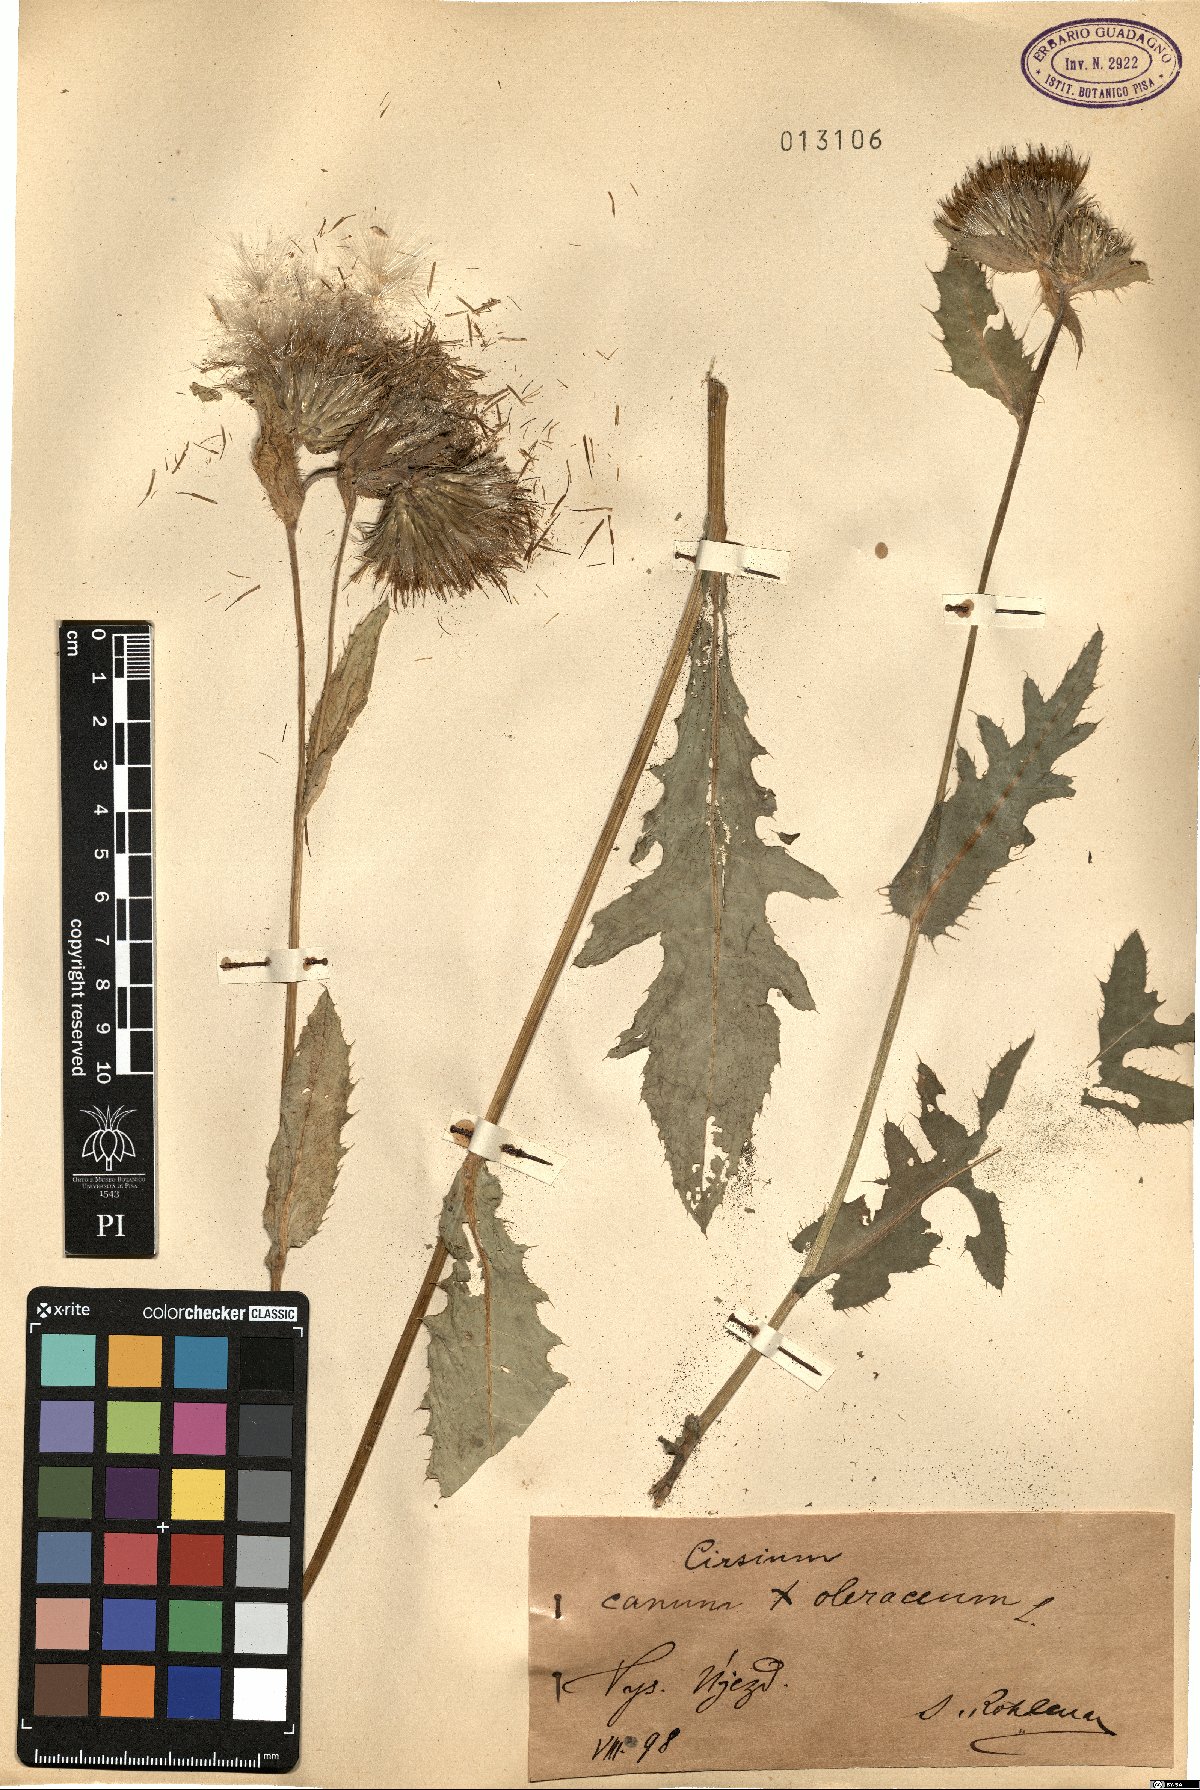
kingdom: Plantae
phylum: Tracheophyta
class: Magnoliopsida
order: Asterales
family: Asteraceae
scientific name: Asteraceae
